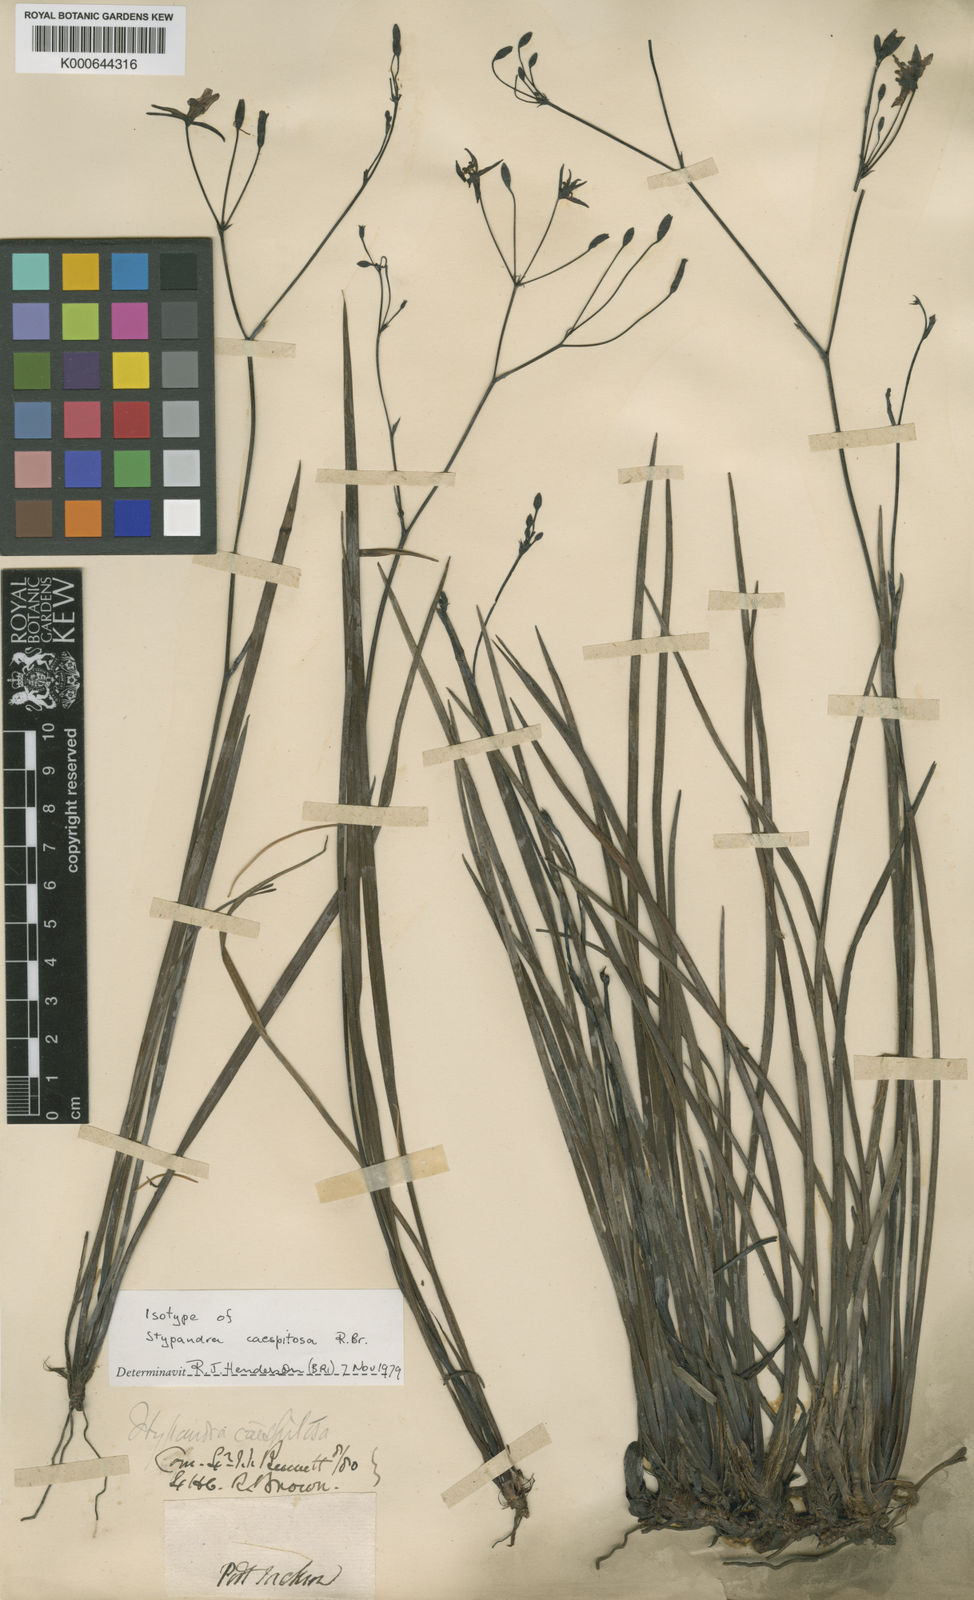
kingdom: Plantae
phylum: Tracheophyta
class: Liliopsida
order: Asparagales
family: Asphodelaceae
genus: Thelionema
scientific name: Thelionema caespitosum
